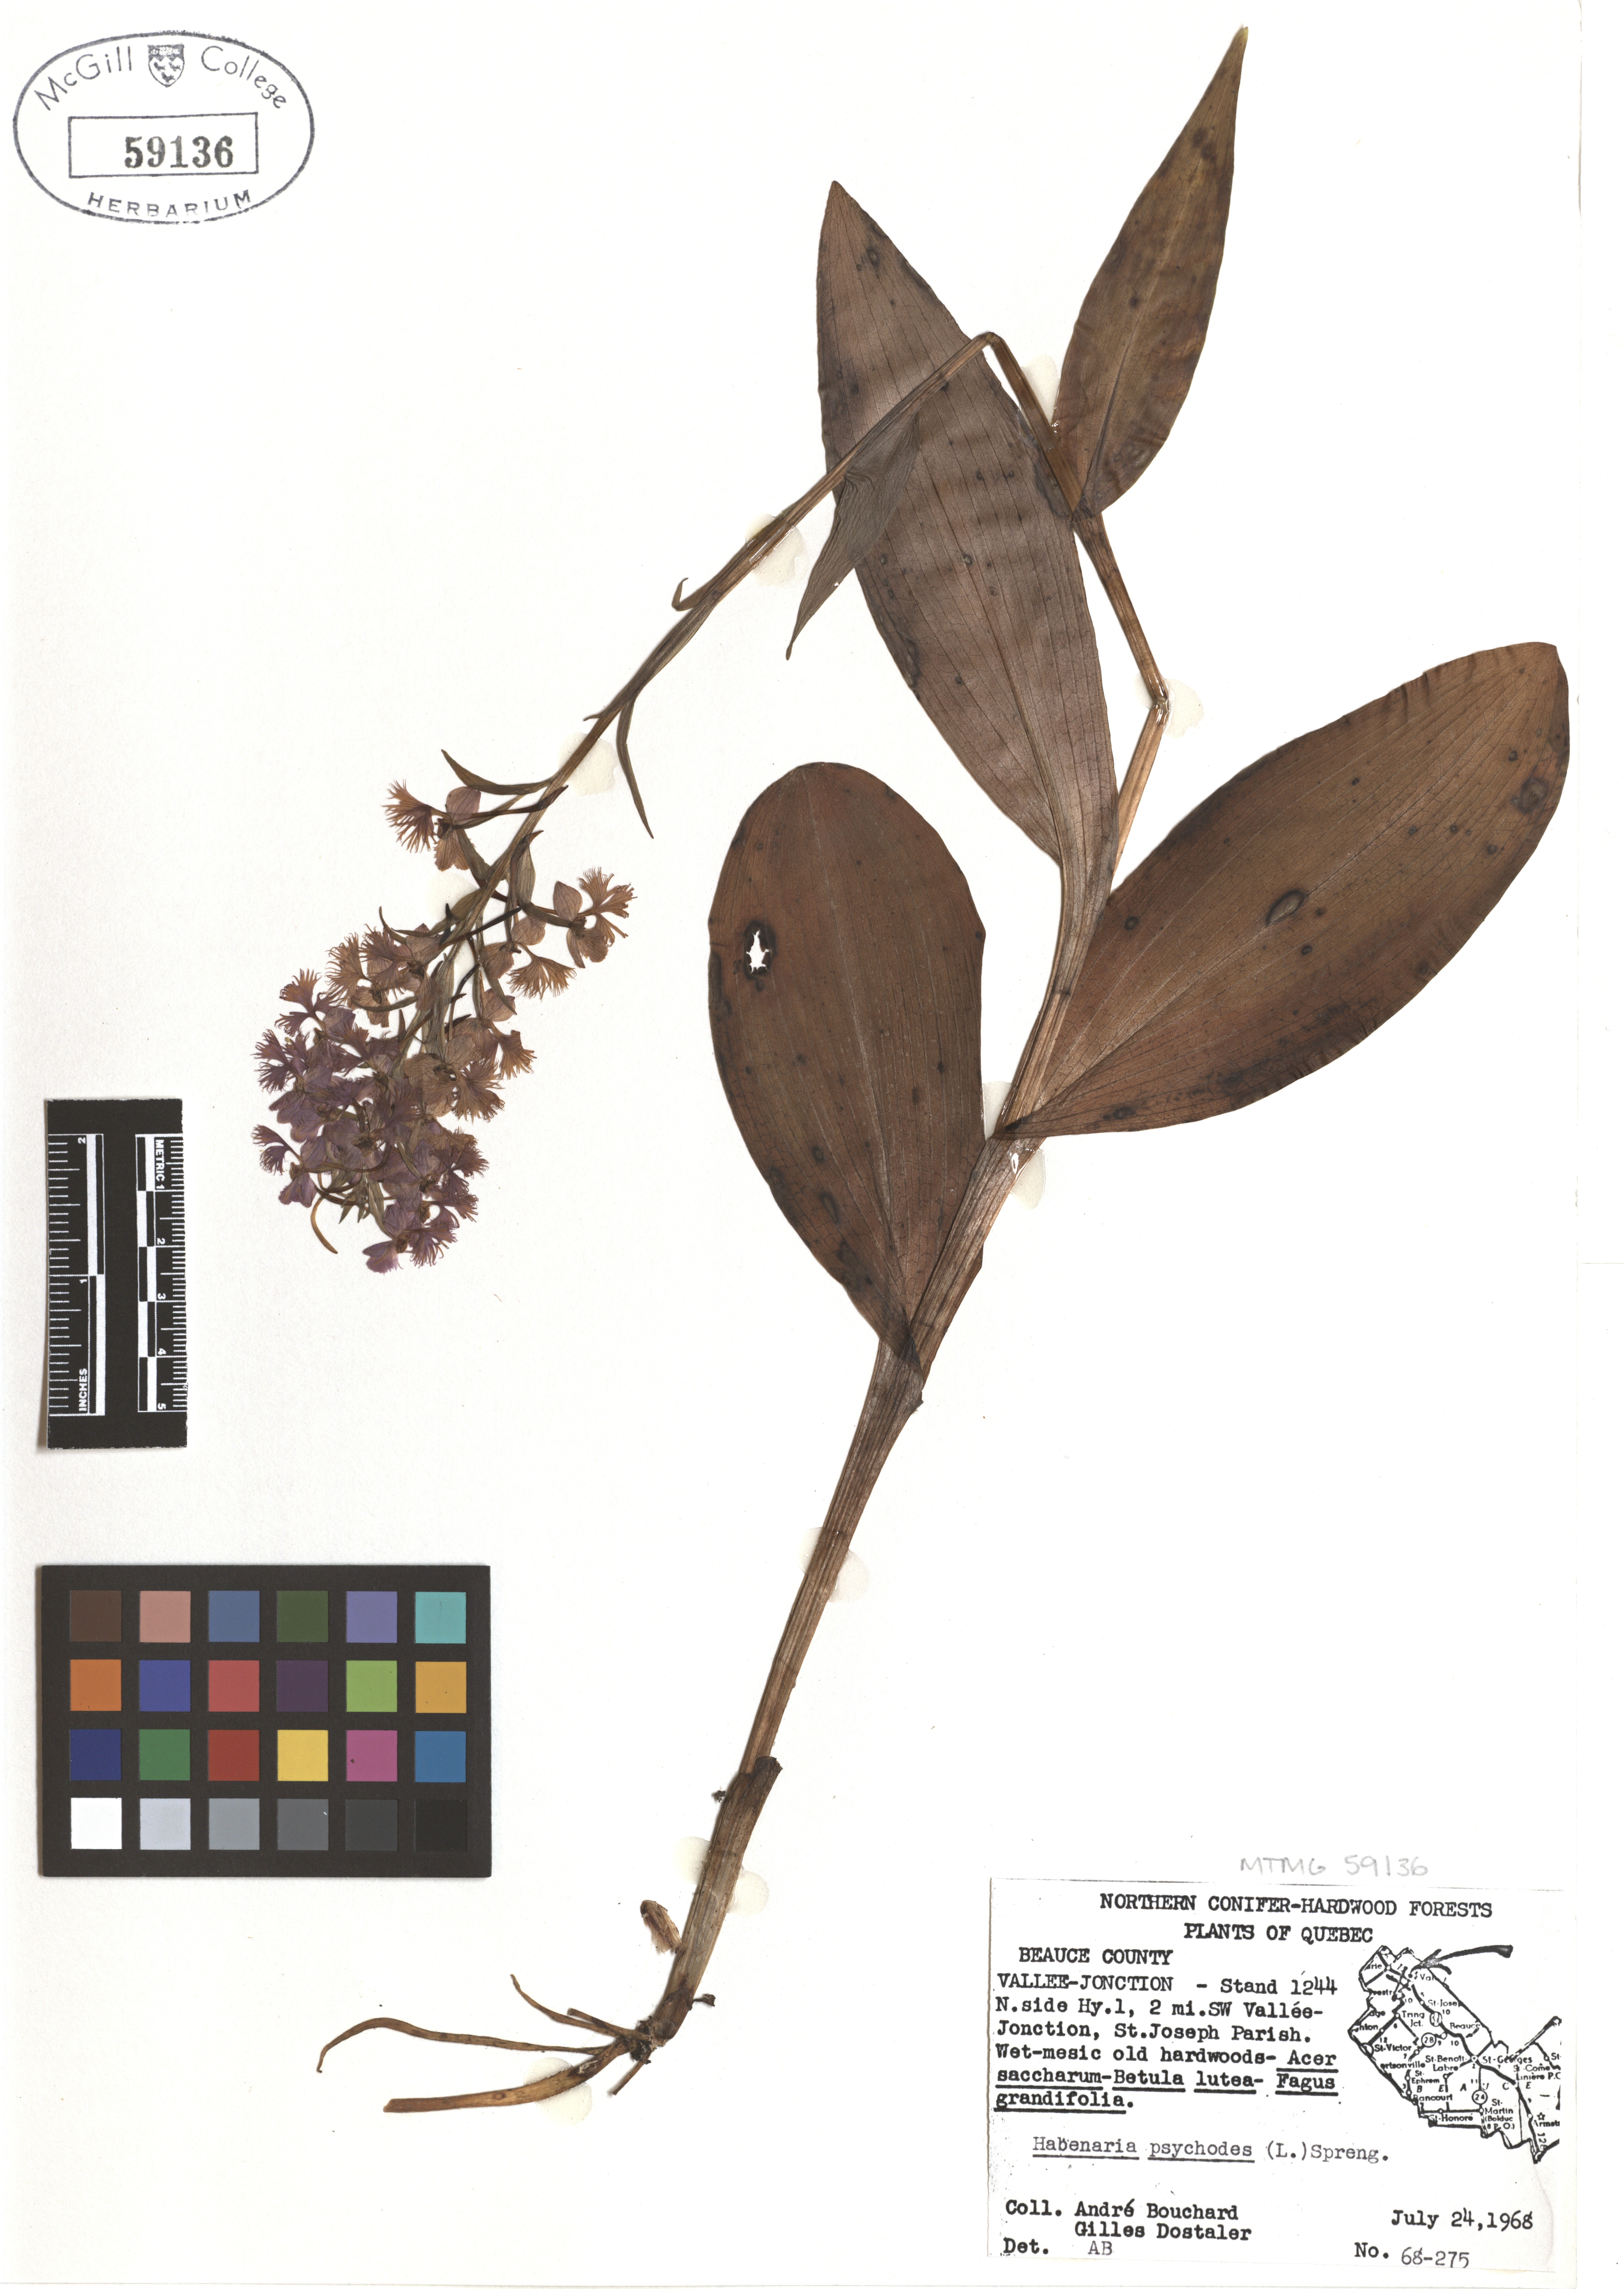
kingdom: Plantae
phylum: Tracheophyta
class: Liliopsida
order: Asparagales
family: Orchidaceae
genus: Platanthera
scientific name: Platanthera psycodes
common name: Lesser purple fringed orchid
